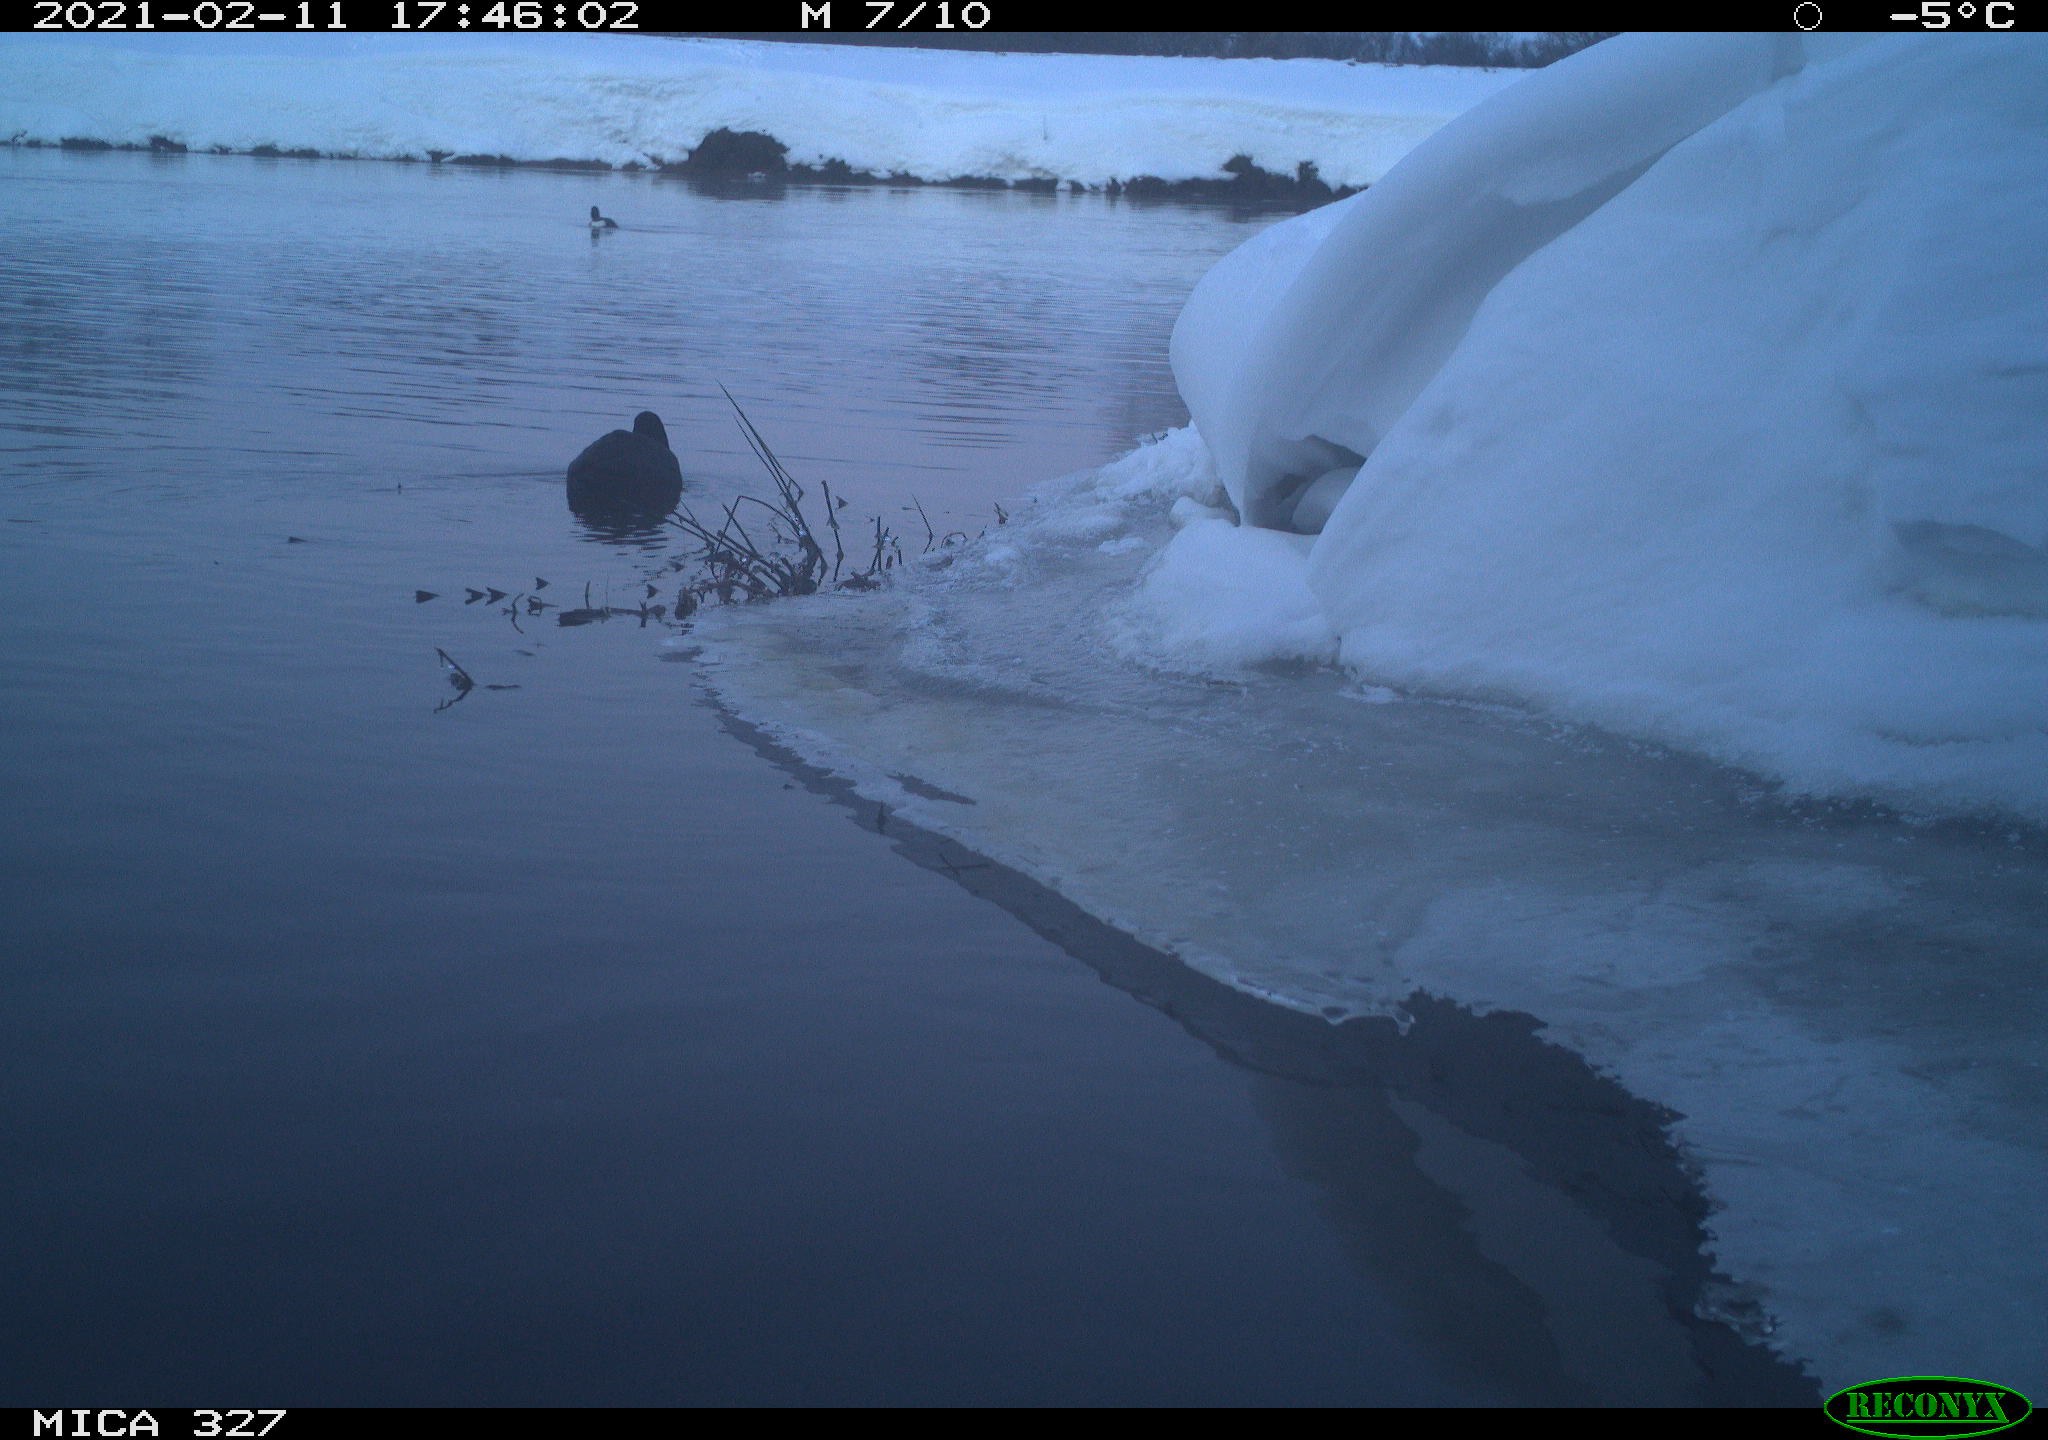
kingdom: Animalia
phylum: Chordata
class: Aves
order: Gruiformes
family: Rallidae
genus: Fulica
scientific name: Fulica atra
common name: Eurasian coot
